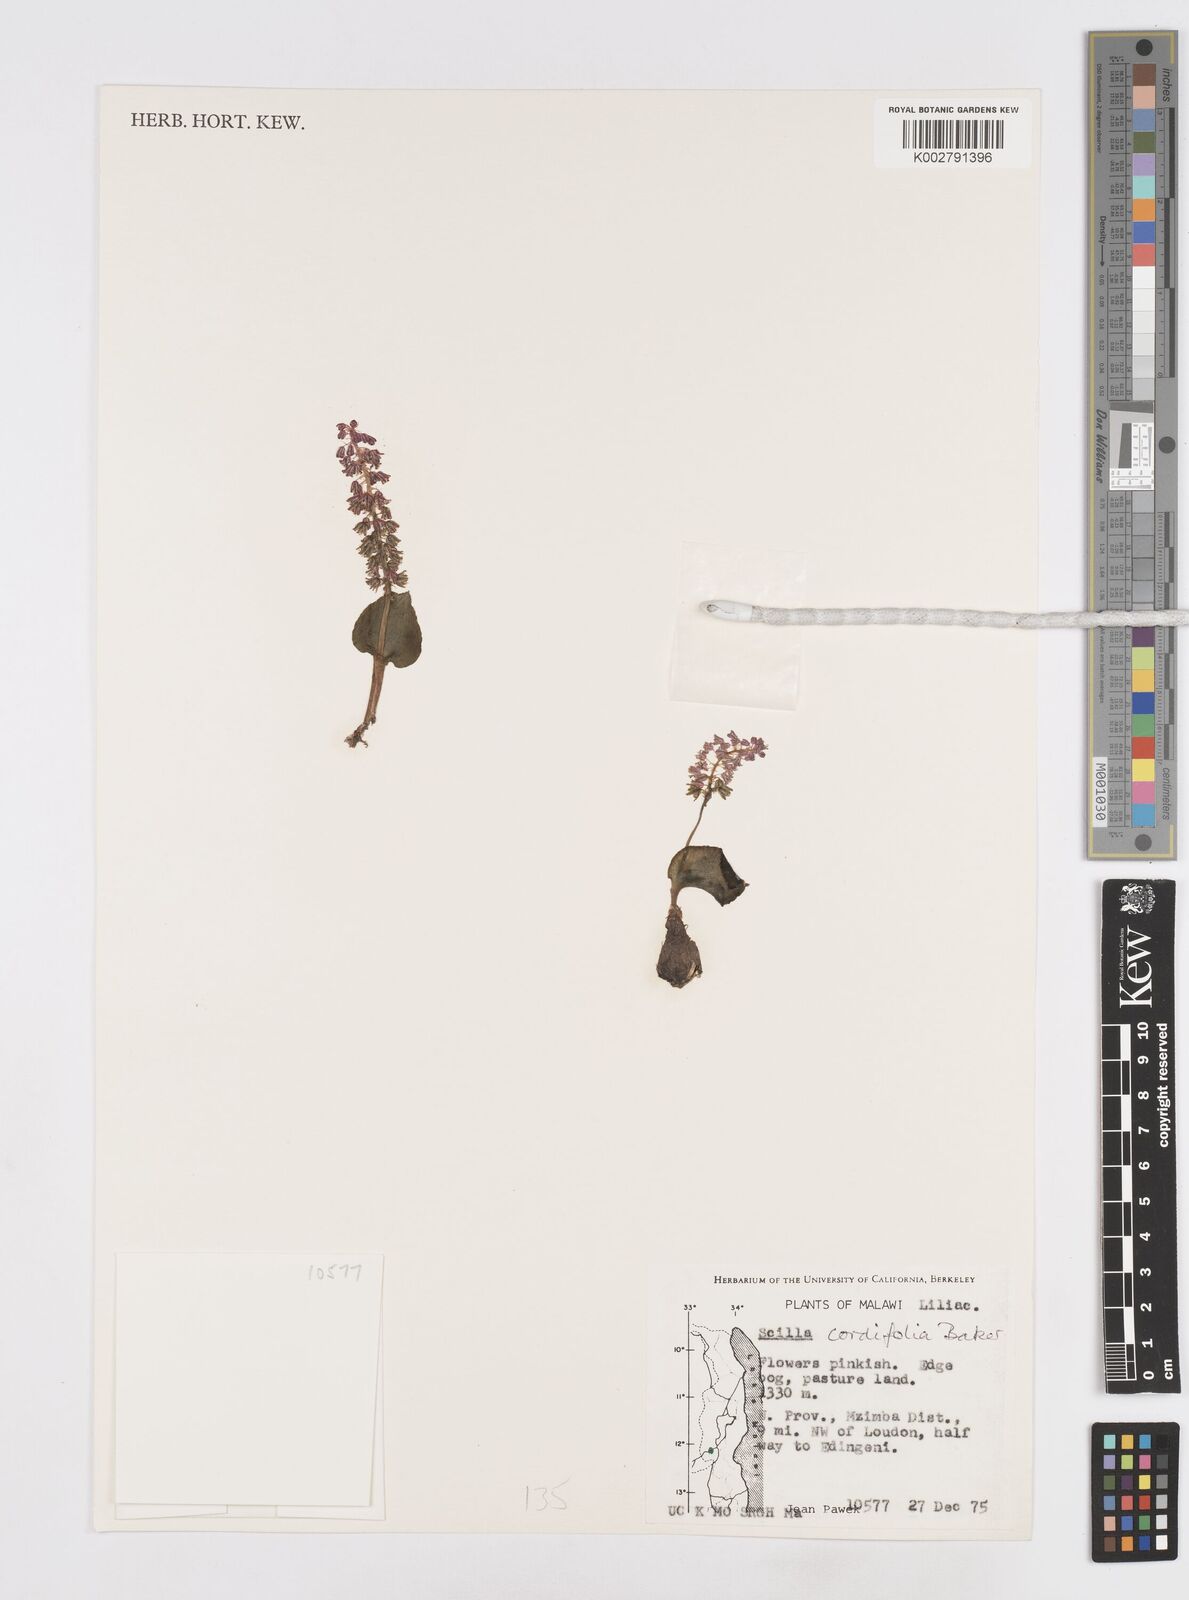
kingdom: Plantae
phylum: Tracheophyta
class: Liliopsida
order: Asparagales
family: Asparagaceae
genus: Ledebouria
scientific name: Ledebouria cordifolia
